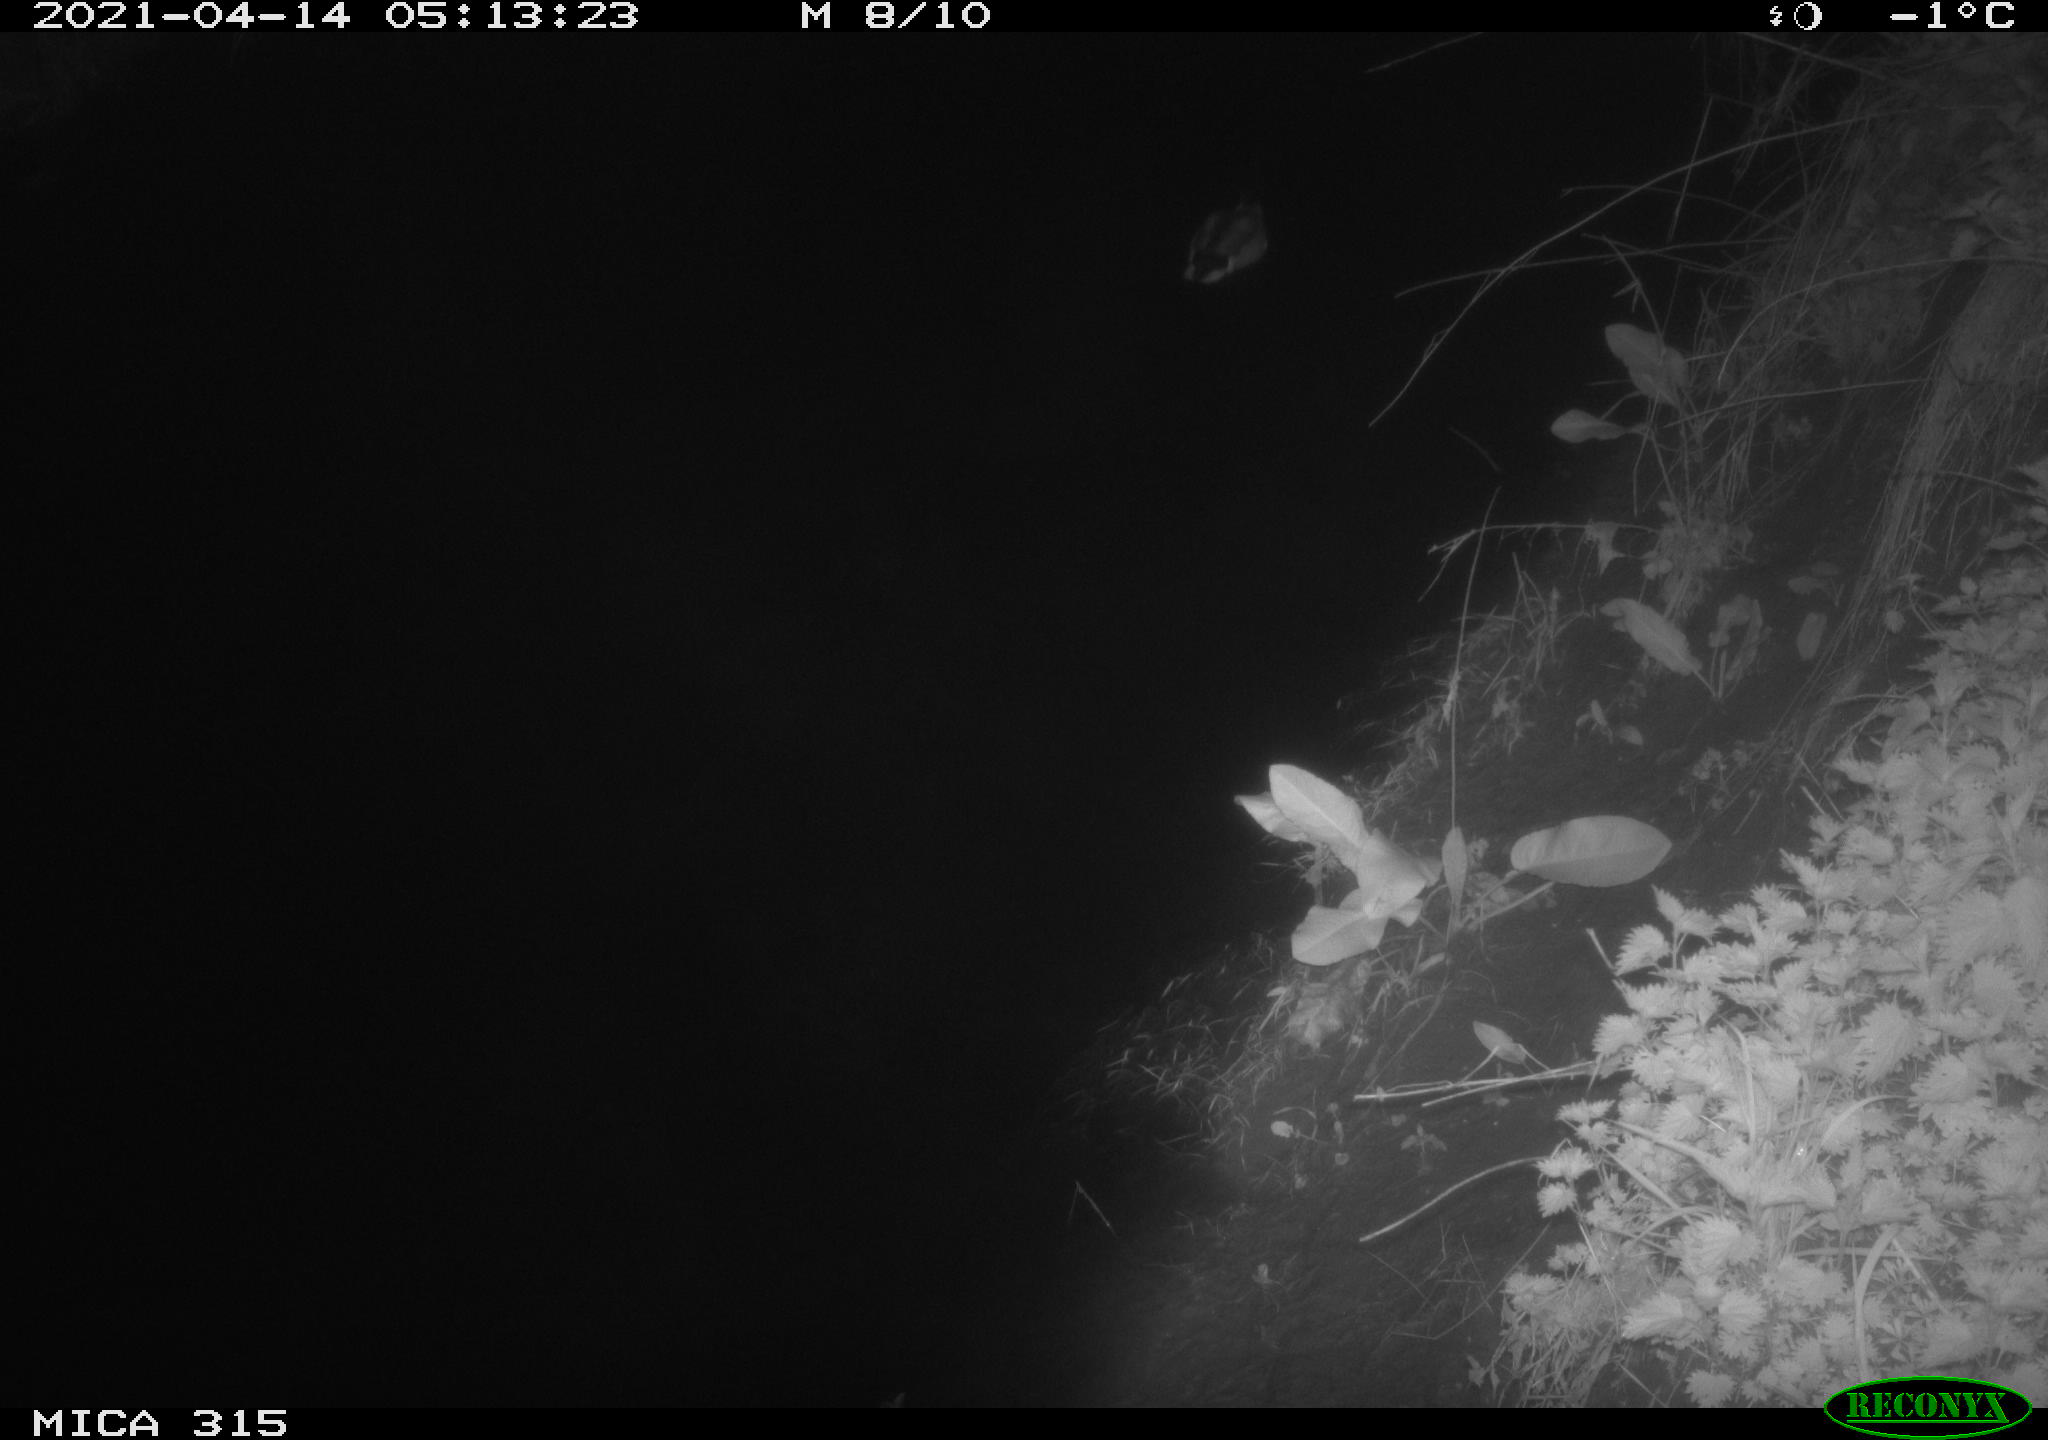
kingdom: Animalia
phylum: Chordata
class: Aves
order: Anseriformes
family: Anatidae
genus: Anas
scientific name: Anas platyrhynchos
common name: Mallard
